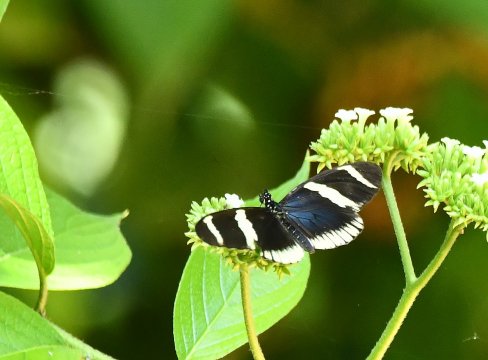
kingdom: Animalia
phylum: Arthropoda
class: Insecta
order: Lepidoptera
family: Nymphalidae
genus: Heliconius
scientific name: Heliconius sara
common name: Sara Longwing
